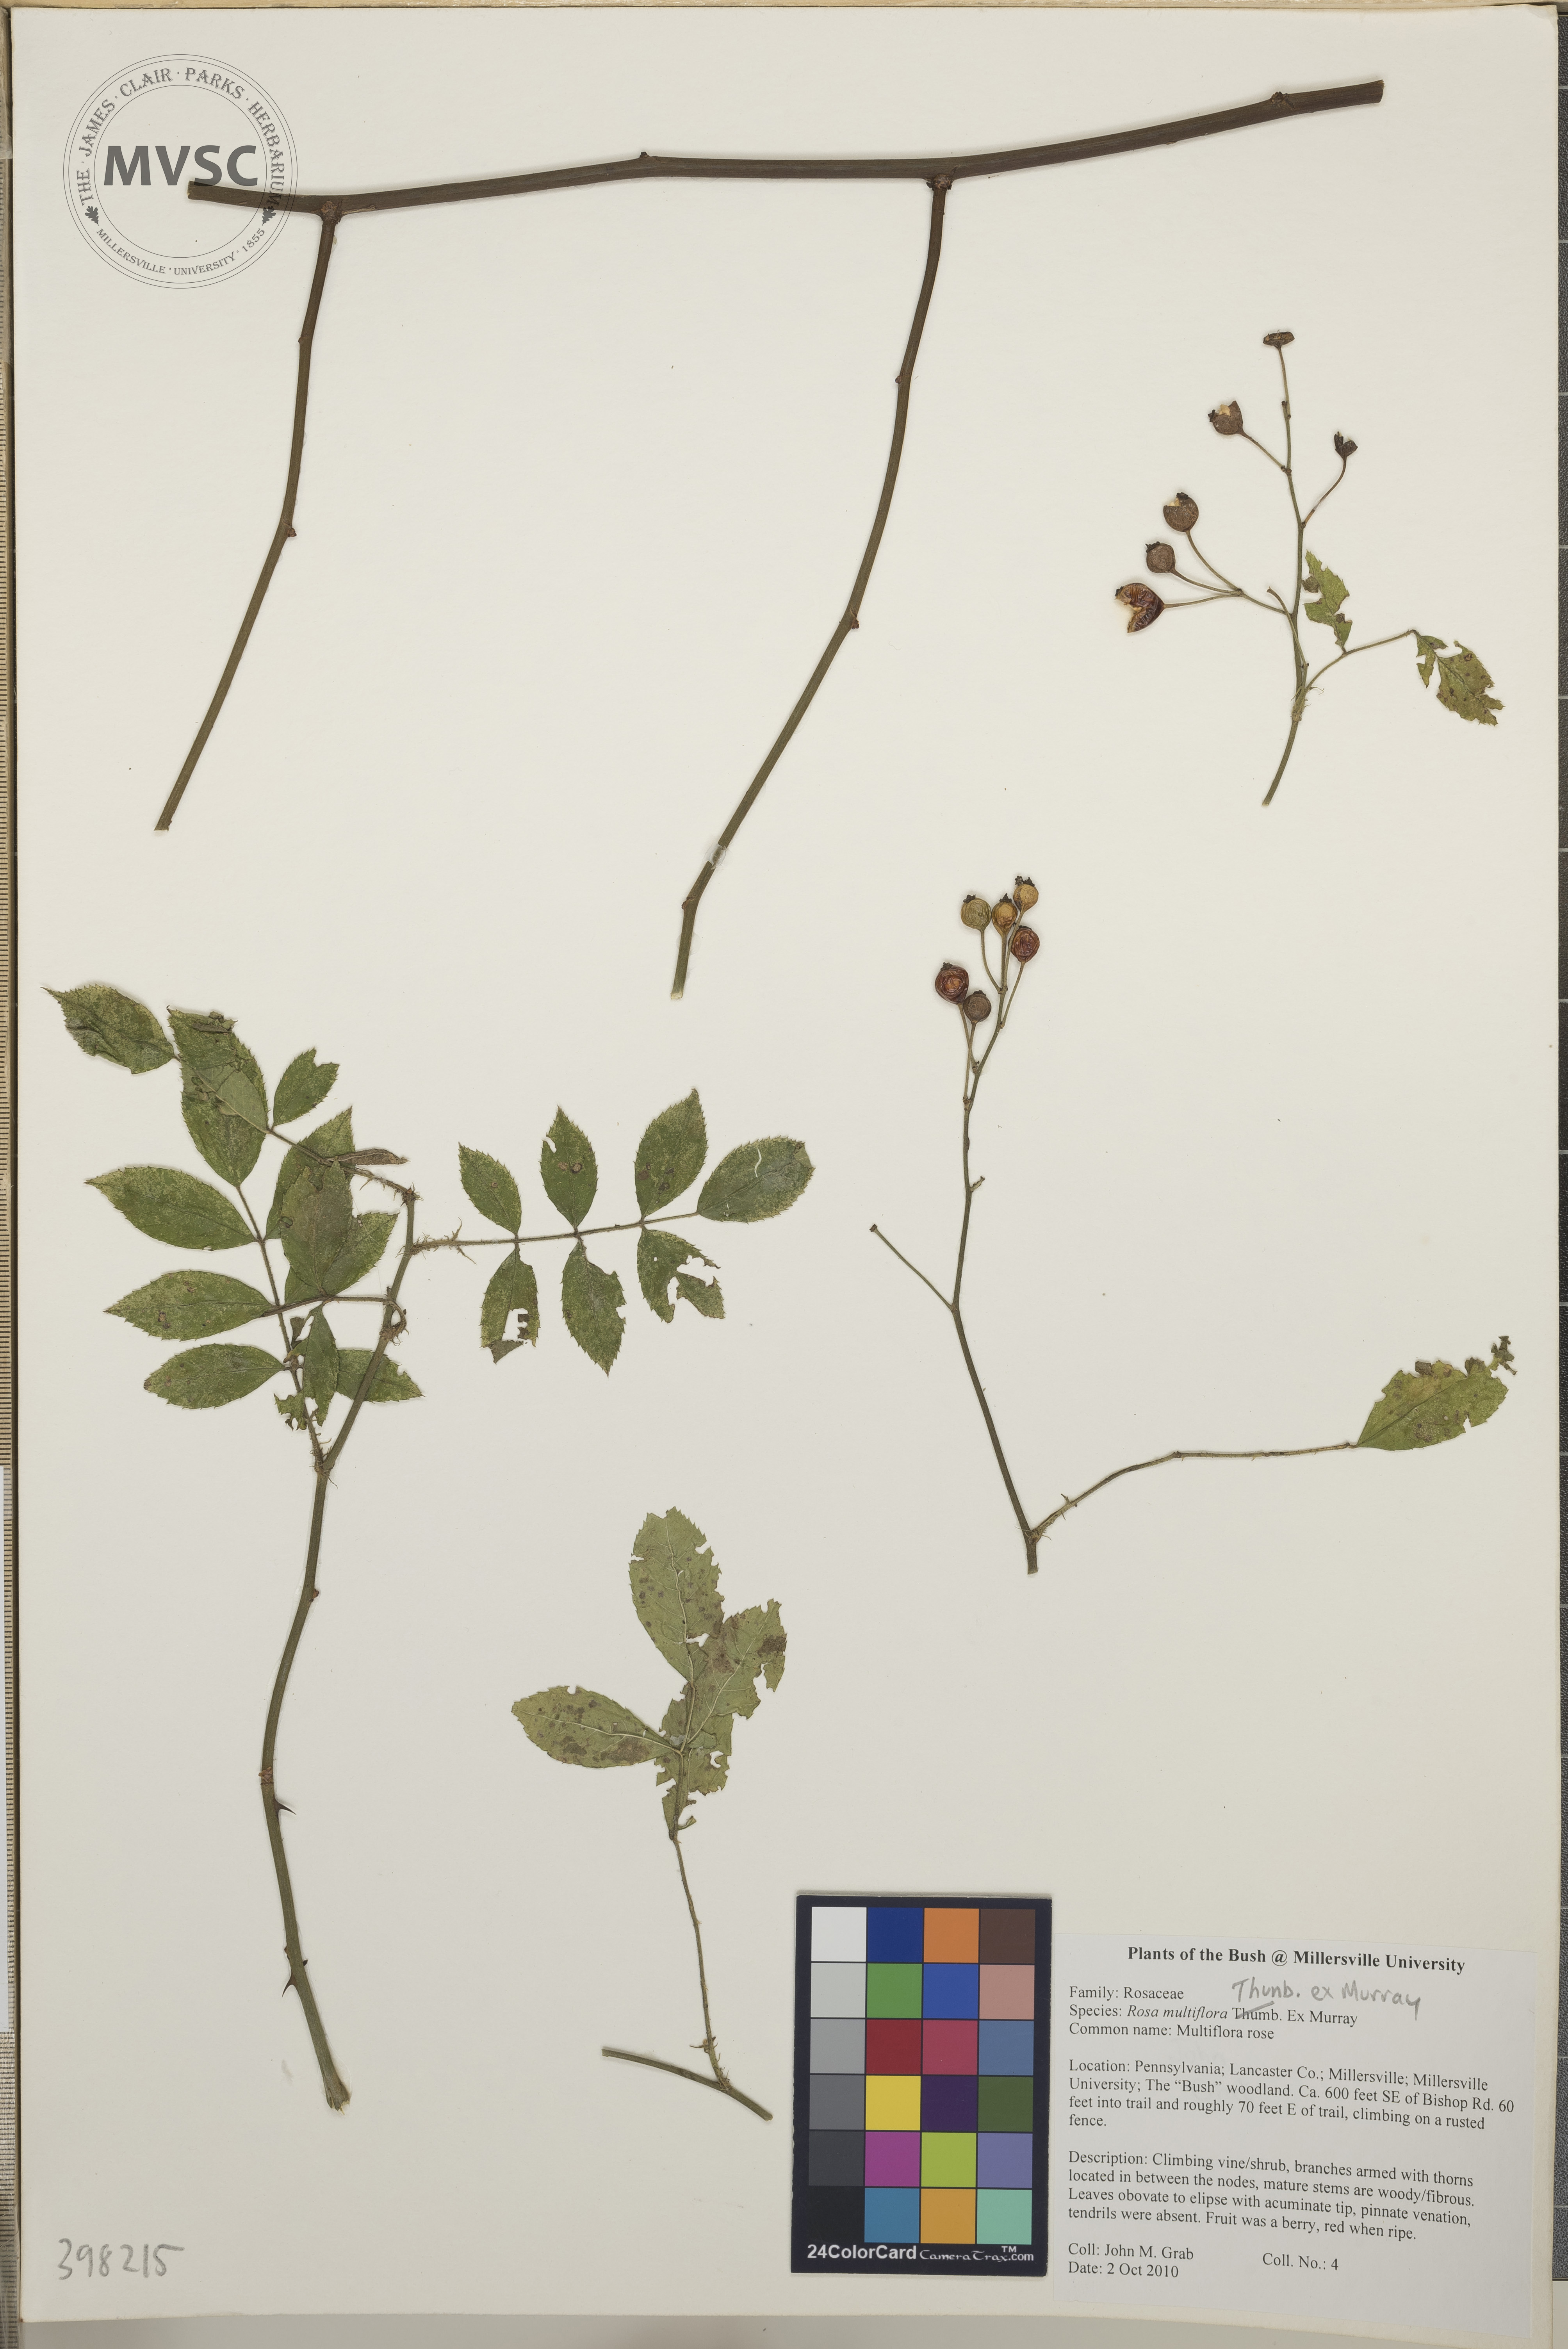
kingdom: Plantae
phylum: Tracheophyta
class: Magnoliopsida
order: Rosales
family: Rosaceae
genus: Rosa
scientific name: Rosa multiflora
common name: Multiflora rose
